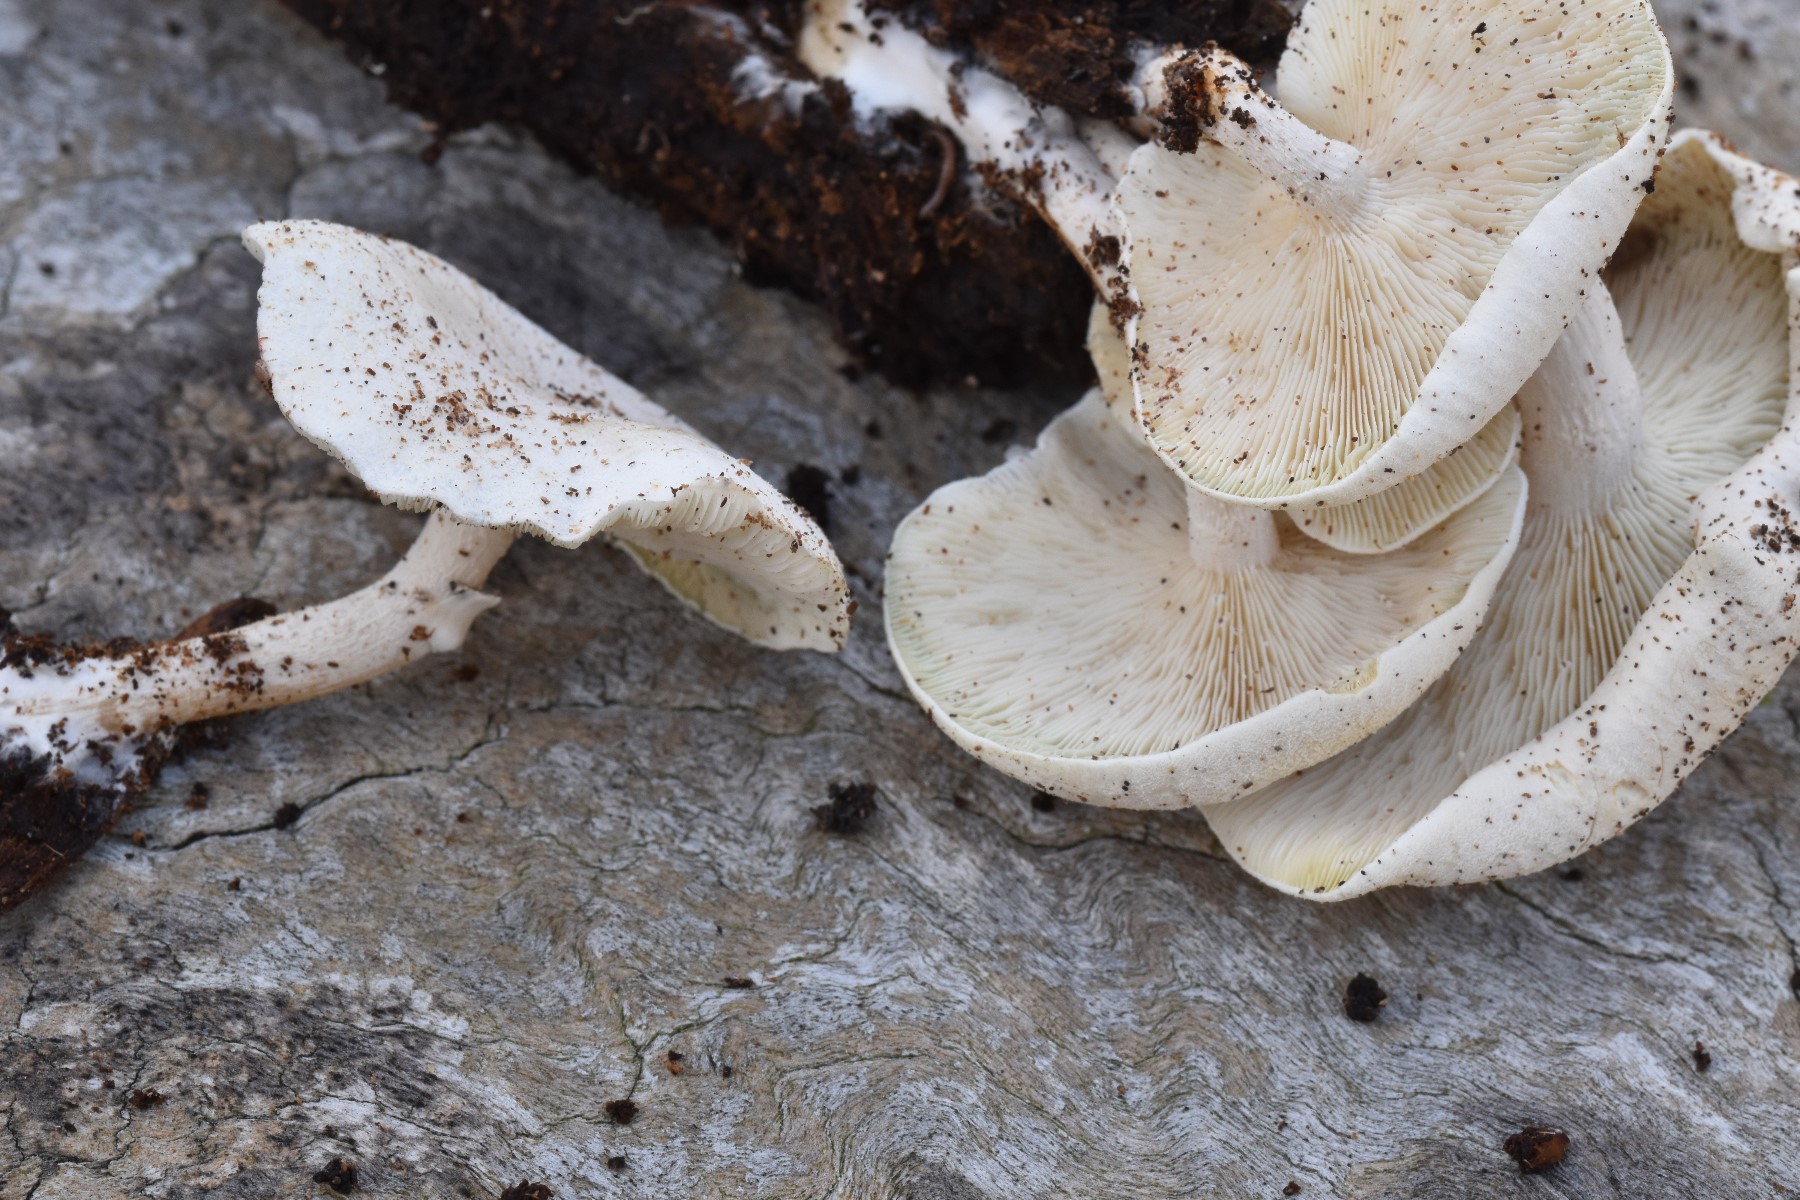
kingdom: Fungi
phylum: Basidiomycota
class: Agaricomycetes
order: Agaricales
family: Lyophyllaceae
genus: Ossicaulis
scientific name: Ossicaulis lignatilis
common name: hvidlig vedtragthat
